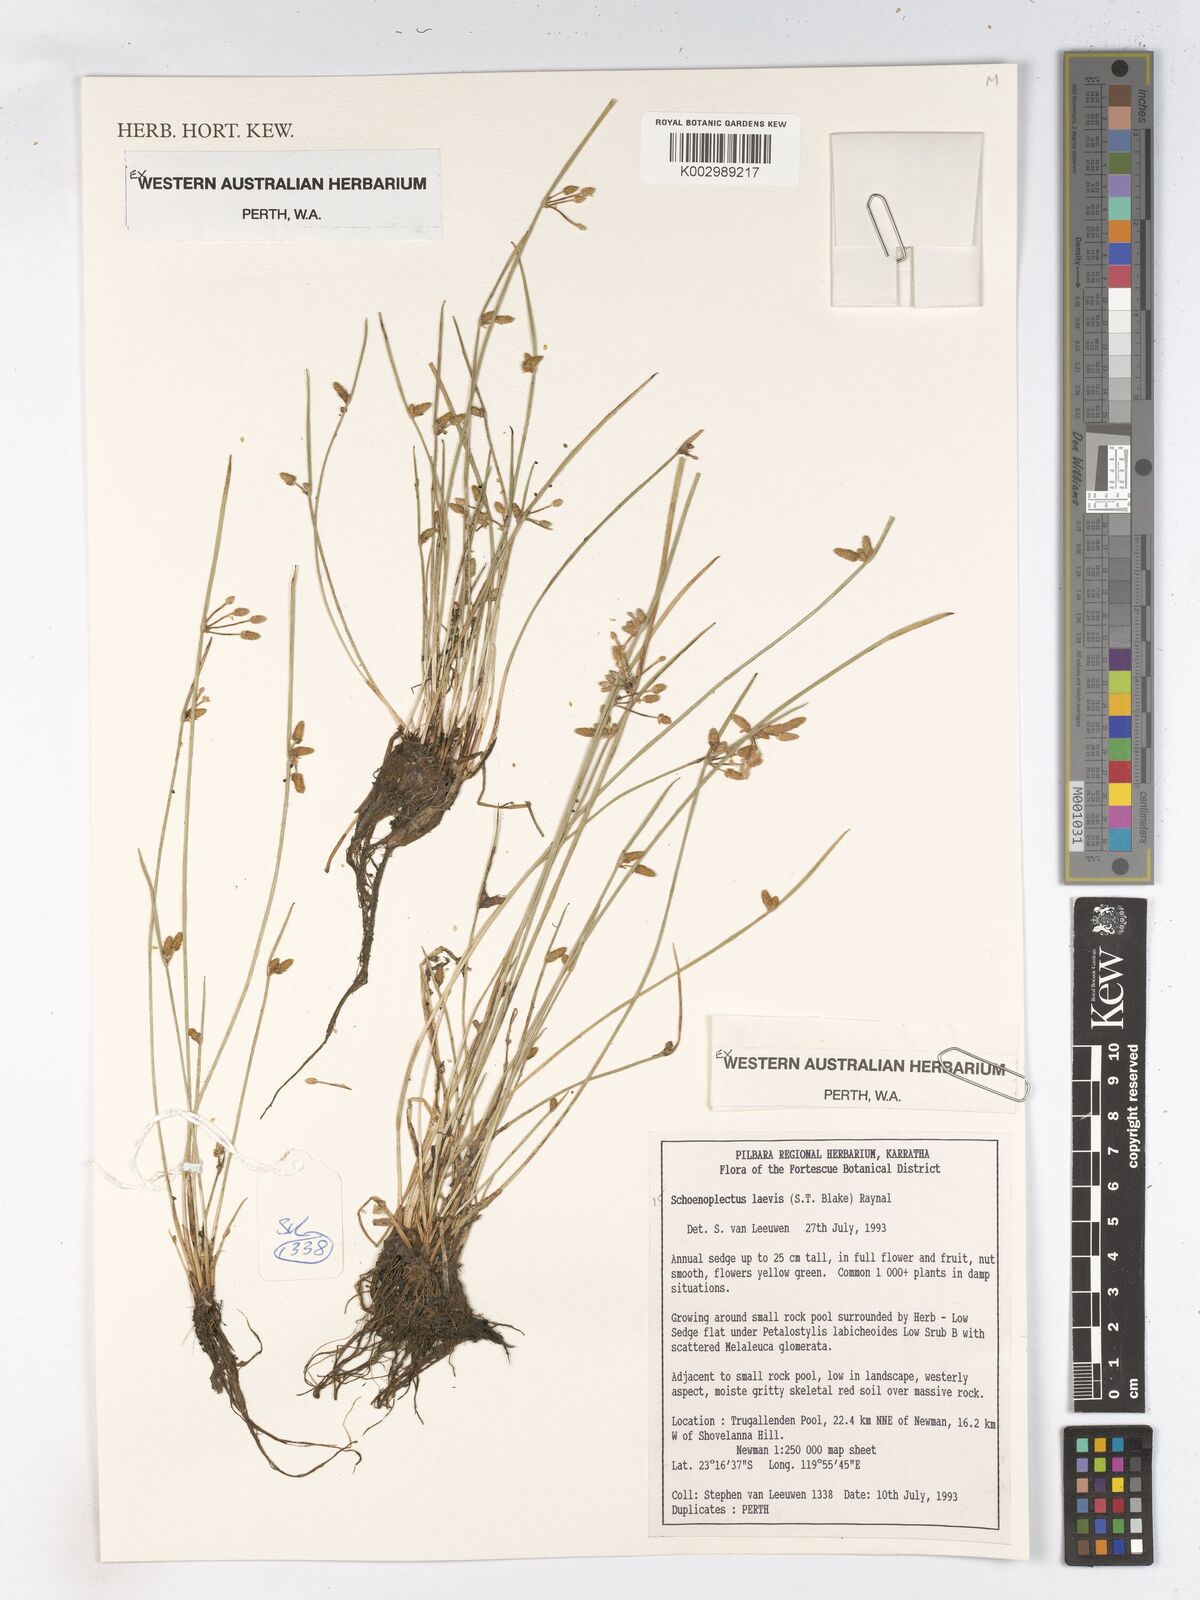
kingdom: Plantae
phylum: Tracheophyta
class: Liliopsida
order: Poales
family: Cyperaceae
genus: Schoenoplectiella
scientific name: Schoenoplectiella laevis
